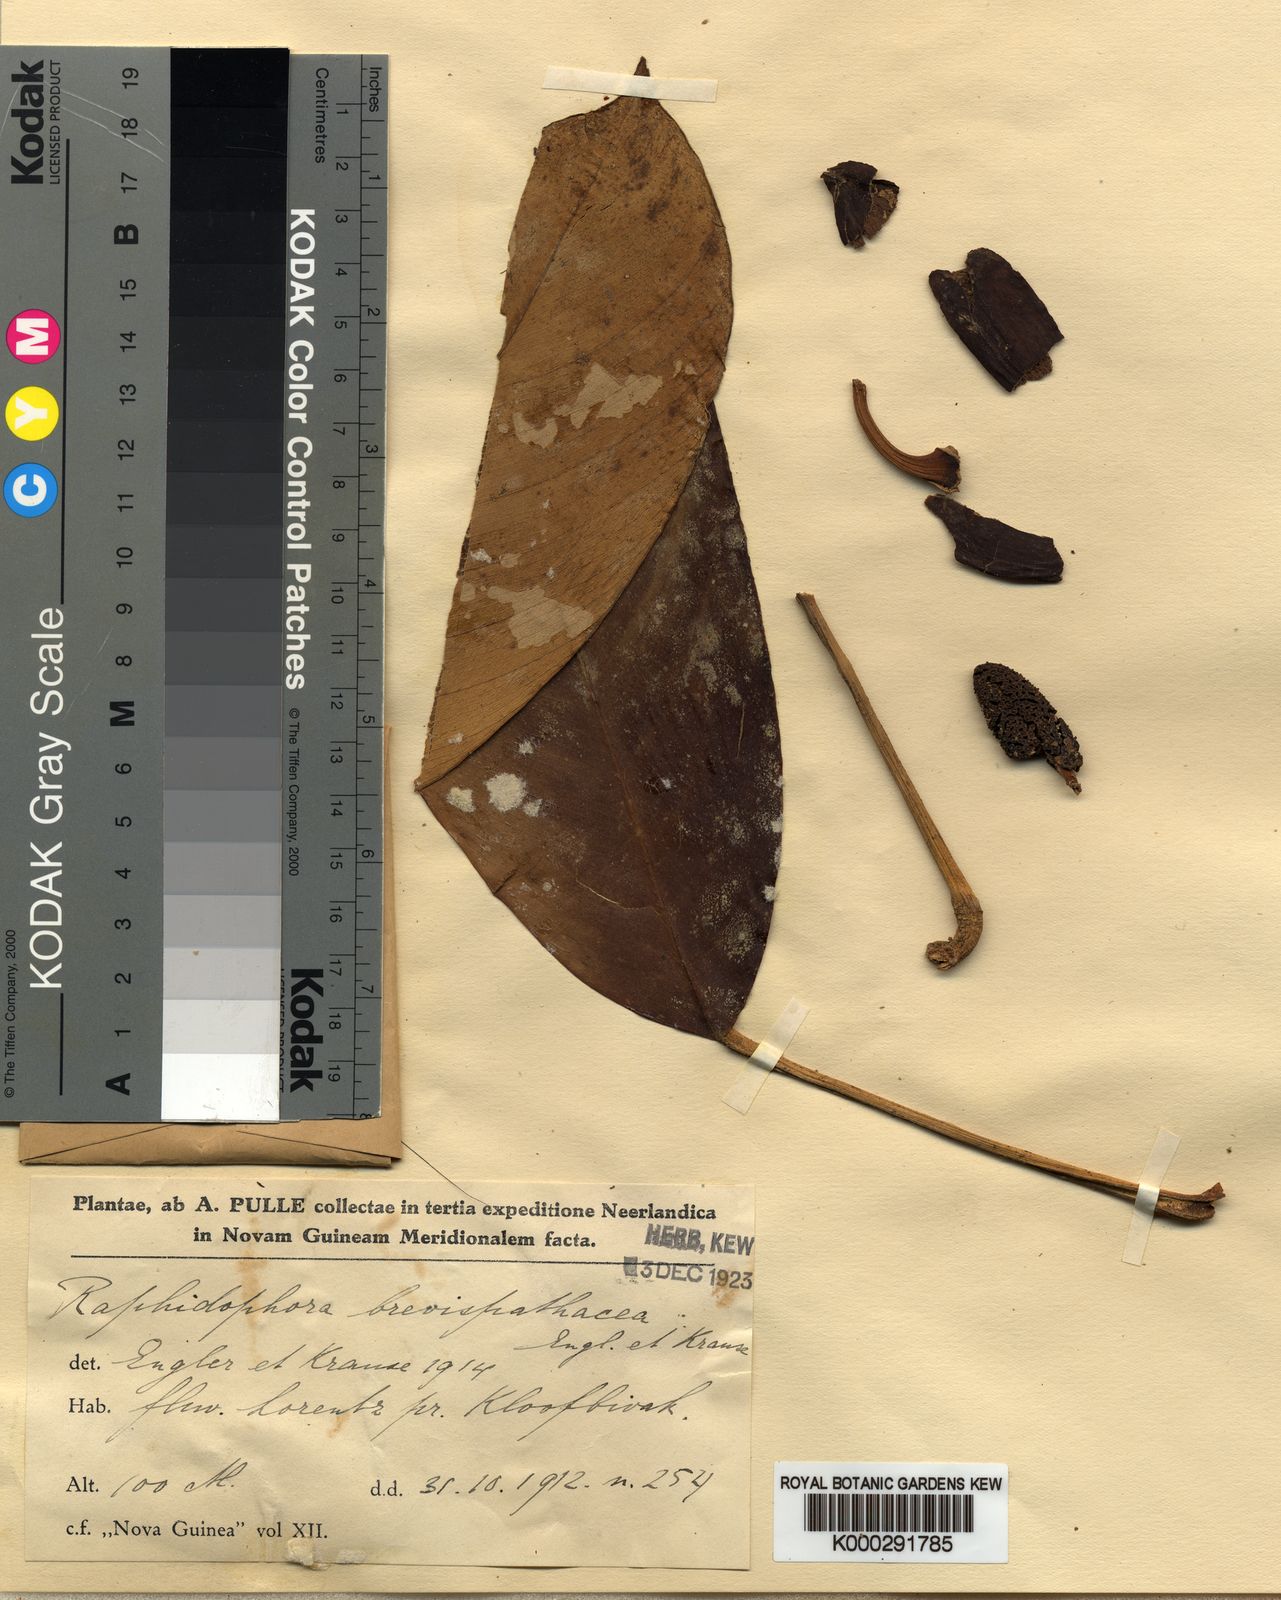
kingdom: Plantae
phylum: Tracheophyta
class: Liliopsida
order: Alismatales
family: Araceae
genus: Rhaphidophora
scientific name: Rhaphidophora brevispathacea
